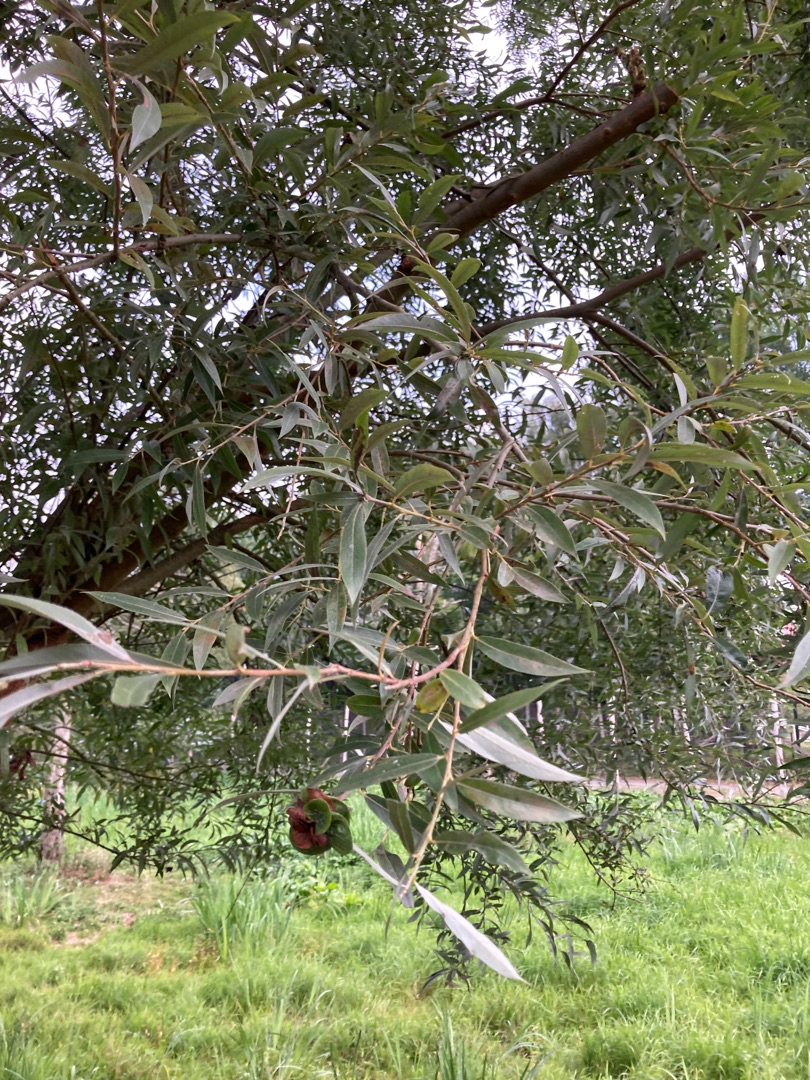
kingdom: Plantae
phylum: Tracheophyta
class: Magnoliopsida
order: Malpighiales
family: Salicaceae
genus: Salix
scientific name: Salix alba
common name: Hvid-pil
